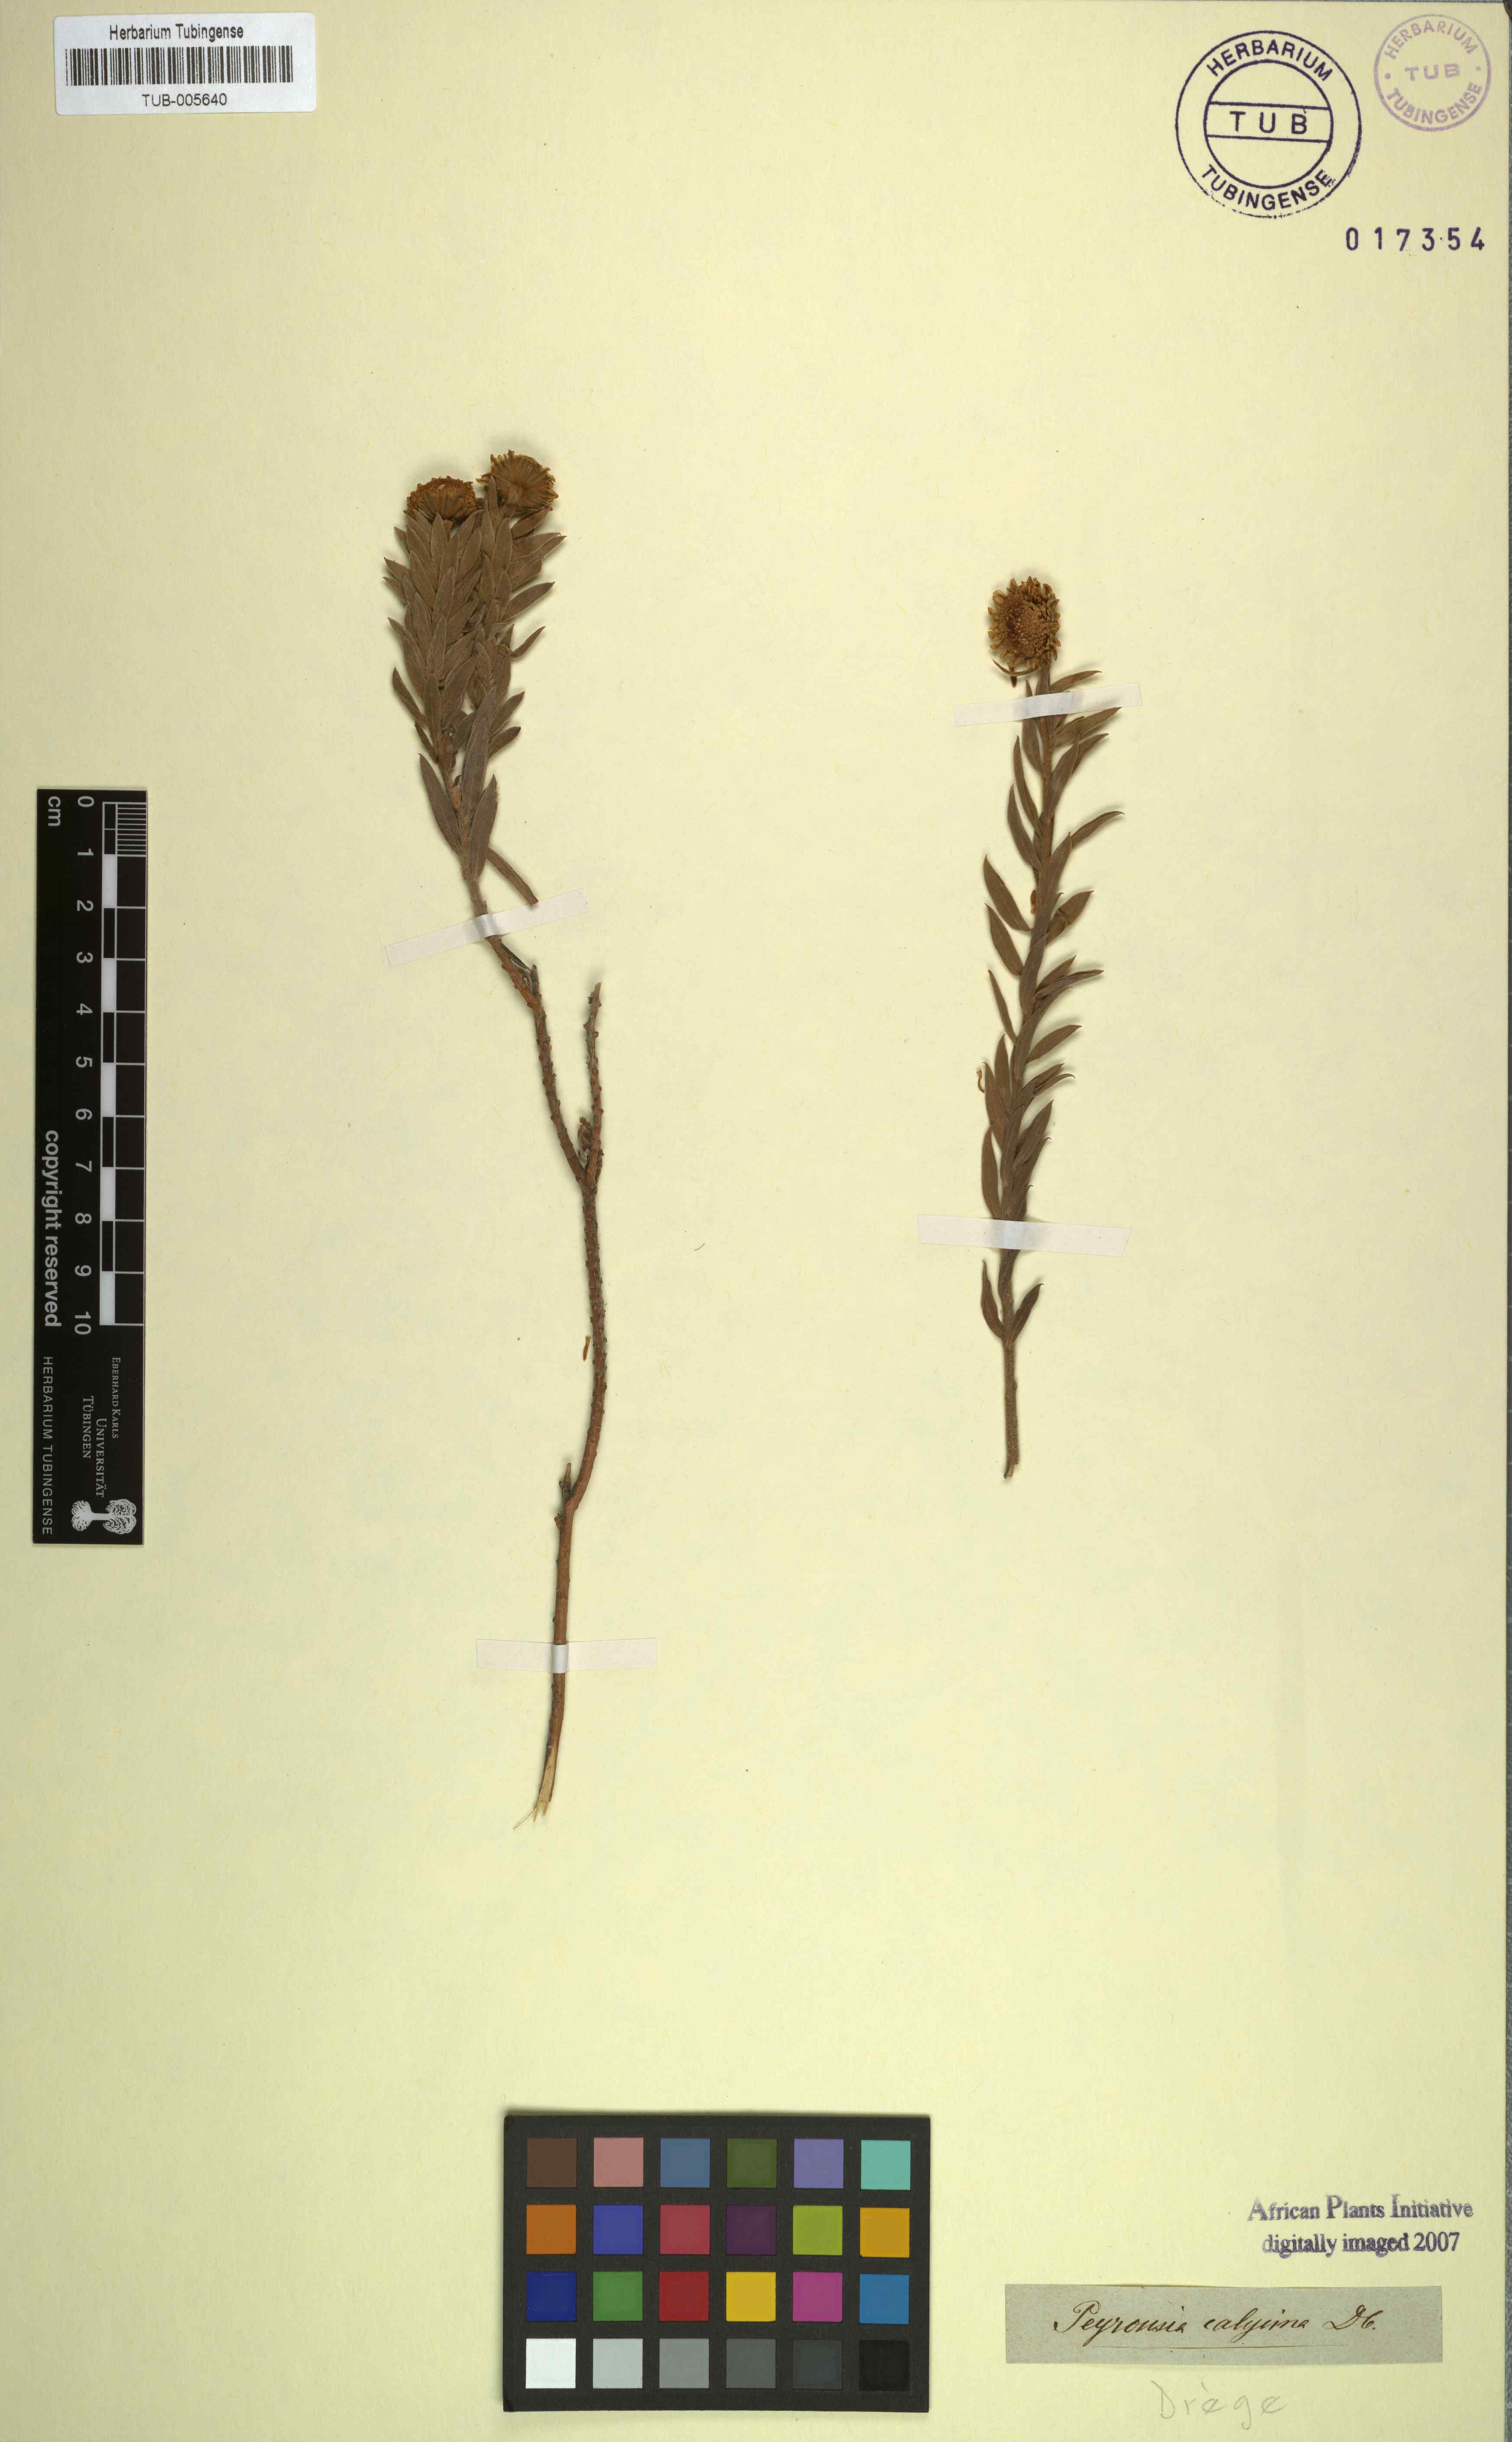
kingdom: Plantae
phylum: Tracheophyta
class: Magnoliopsida
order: Asterales
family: Asteraceae
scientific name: Asteraceae
